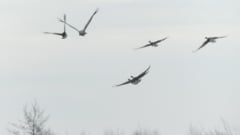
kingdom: Animalia
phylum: Chordata
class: Aves
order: Gruiformes
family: Gruidae
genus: Grus
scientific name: Grus grus
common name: Common crane
